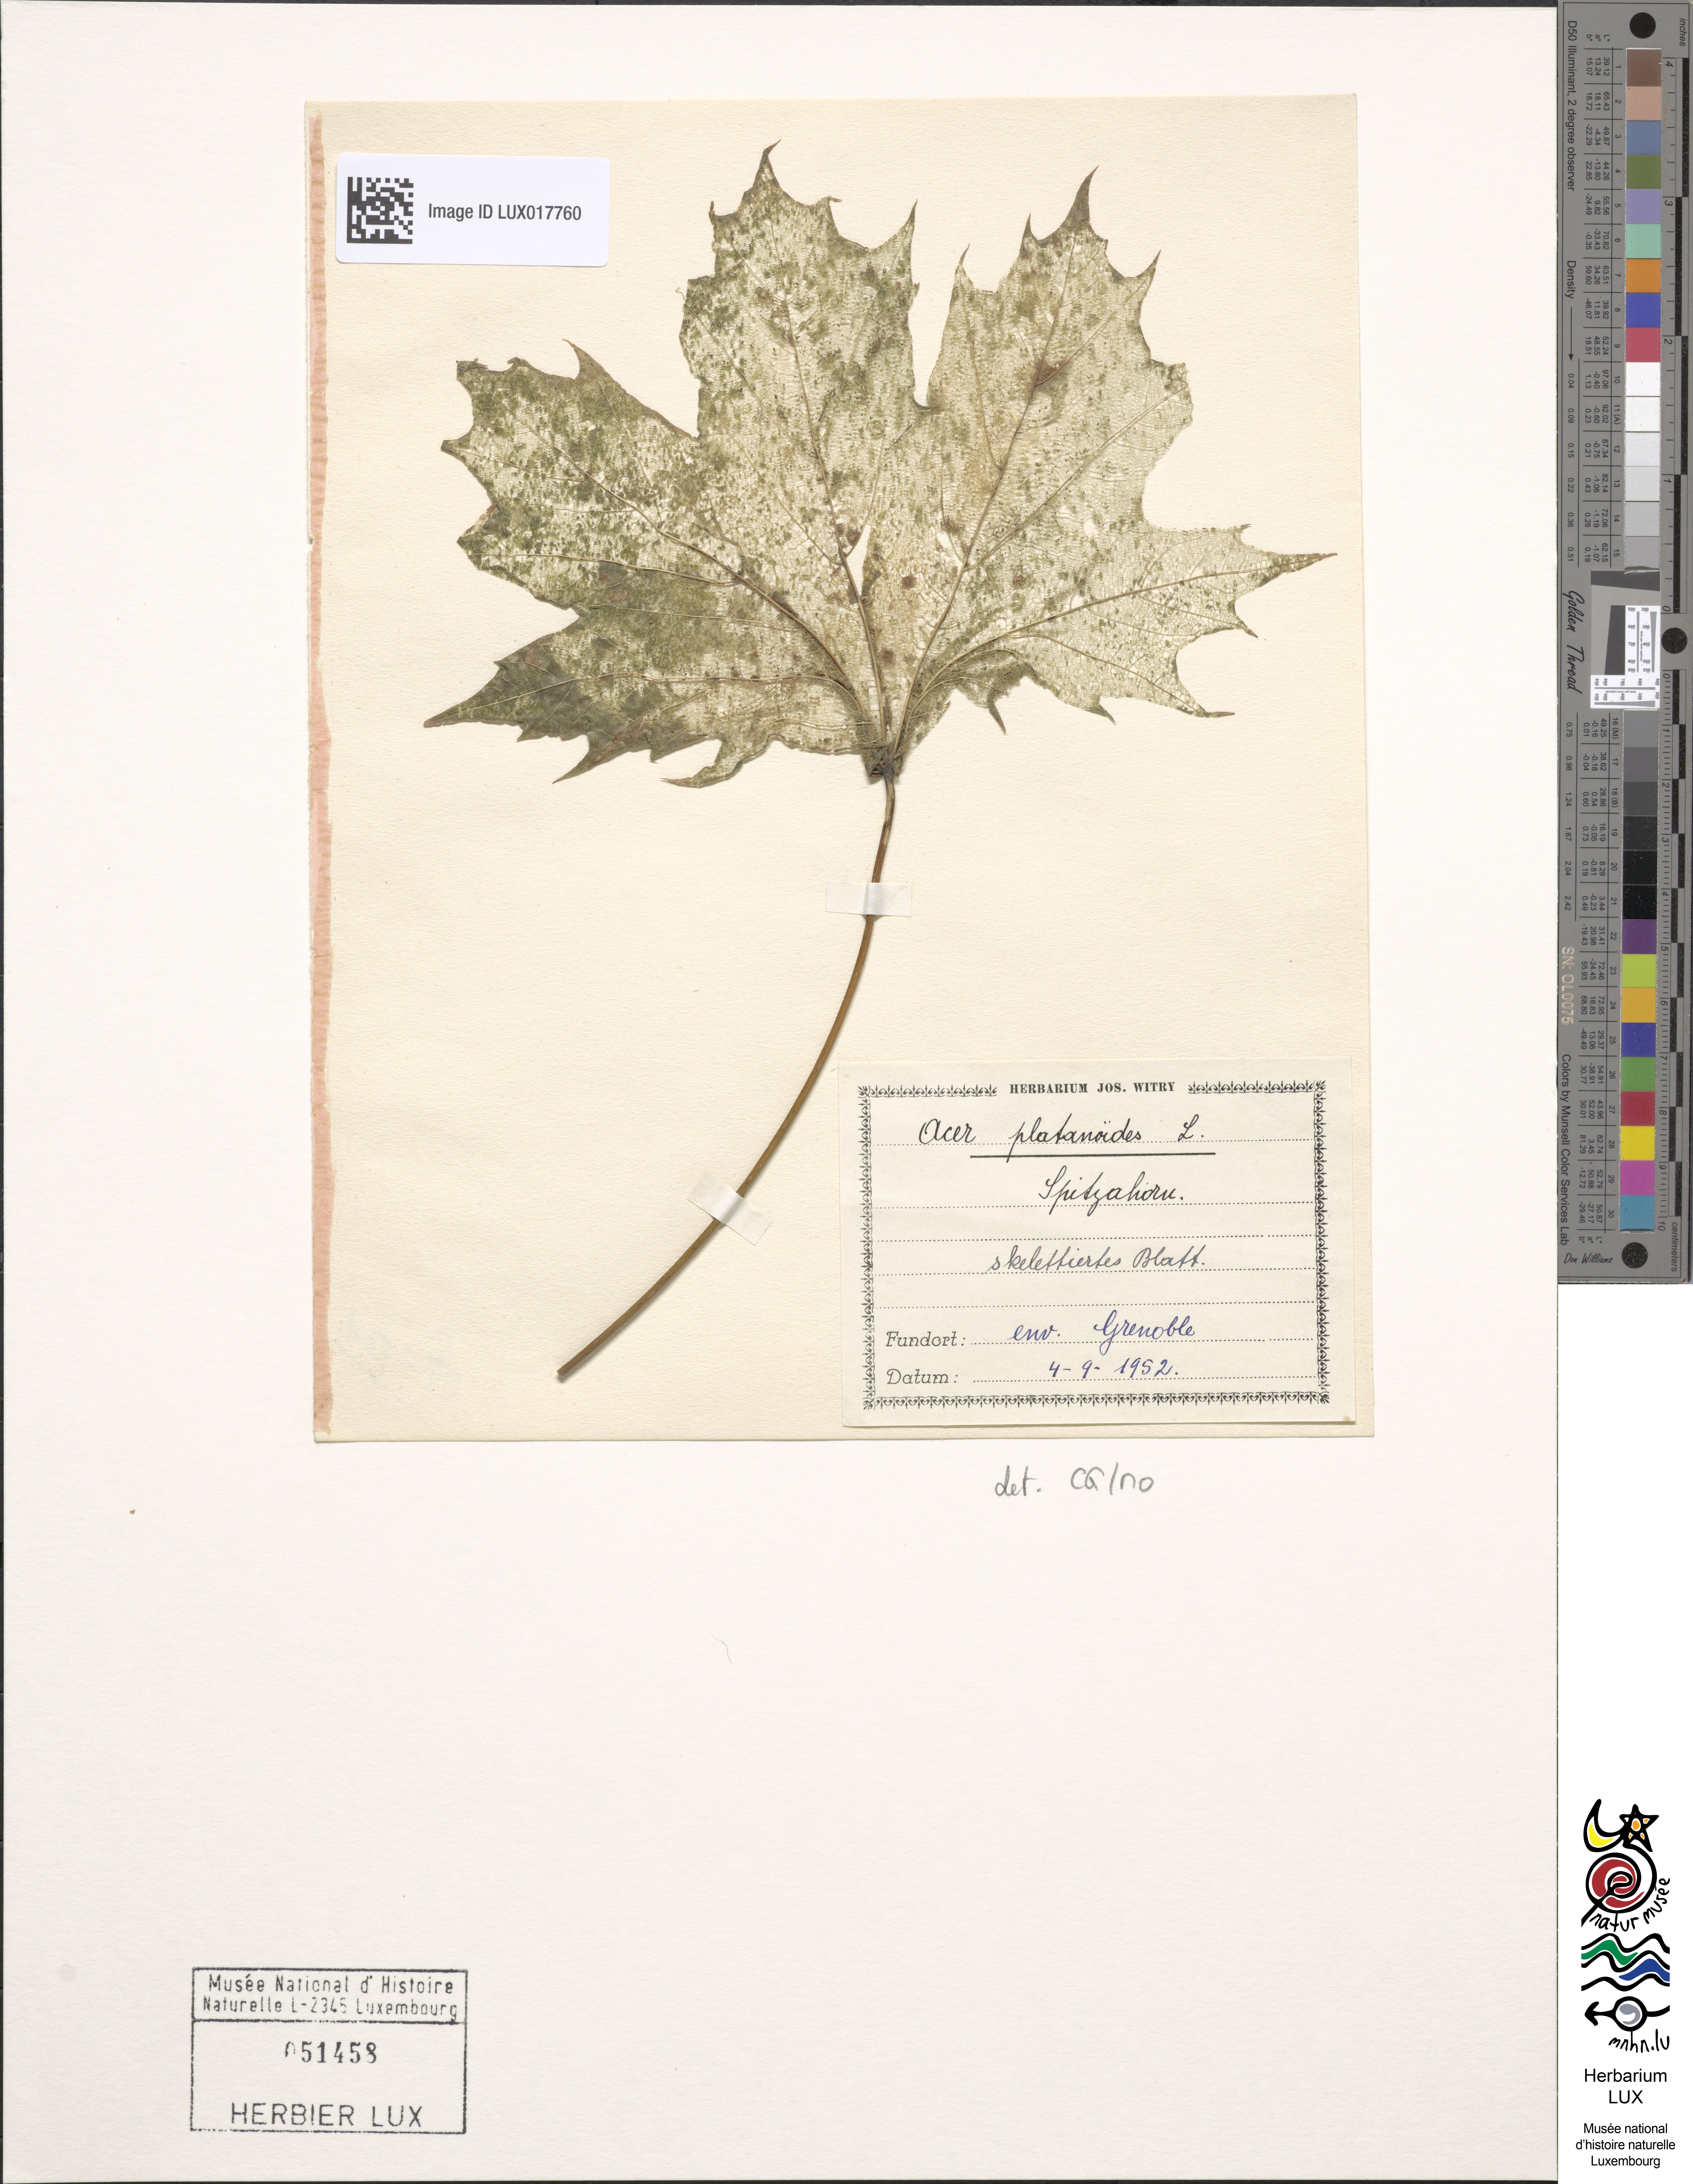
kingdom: Plantae
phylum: Tracheophyta
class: Magnoliopsida
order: Sapindales
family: Sapindaceae
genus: Acer
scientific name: Acer platanoides
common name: Norway maple
